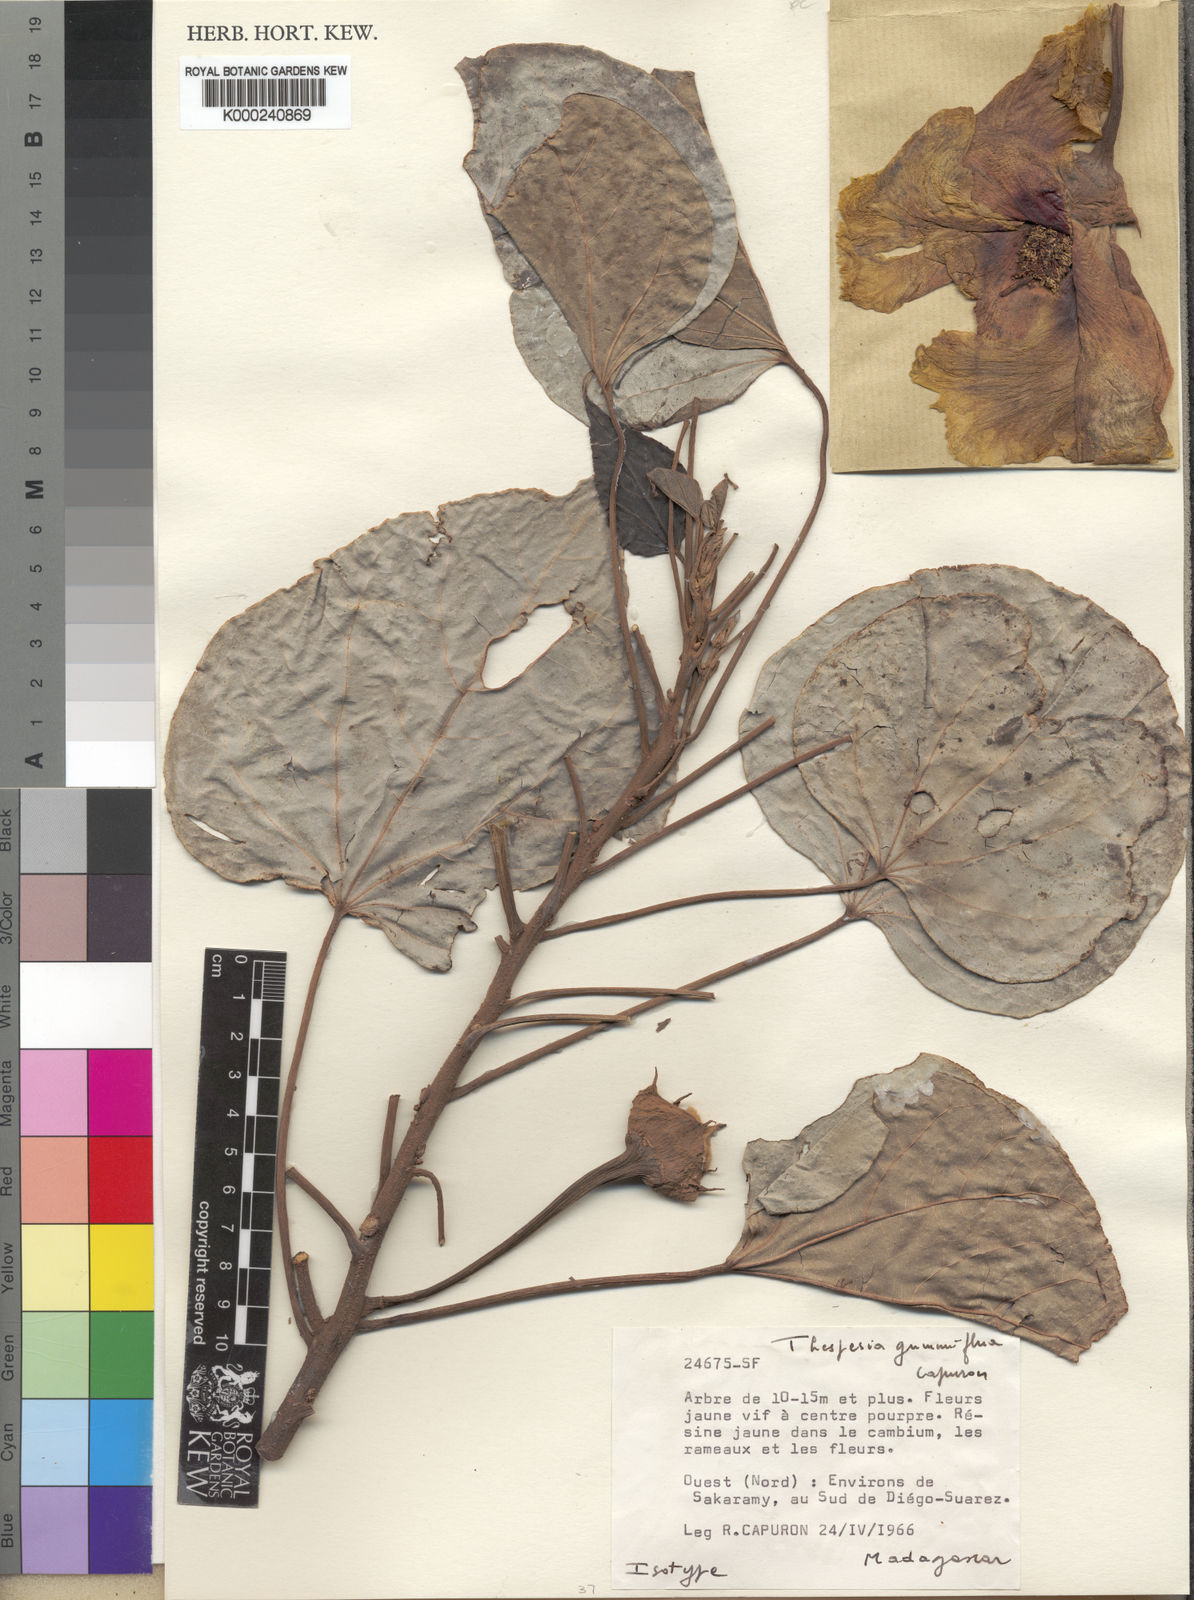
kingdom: Plantae
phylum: Tracheophyta
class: Magnoliopsida
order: Malvales
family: Malvaceae
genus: Thespesia
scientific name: Thespesia gummiflua
